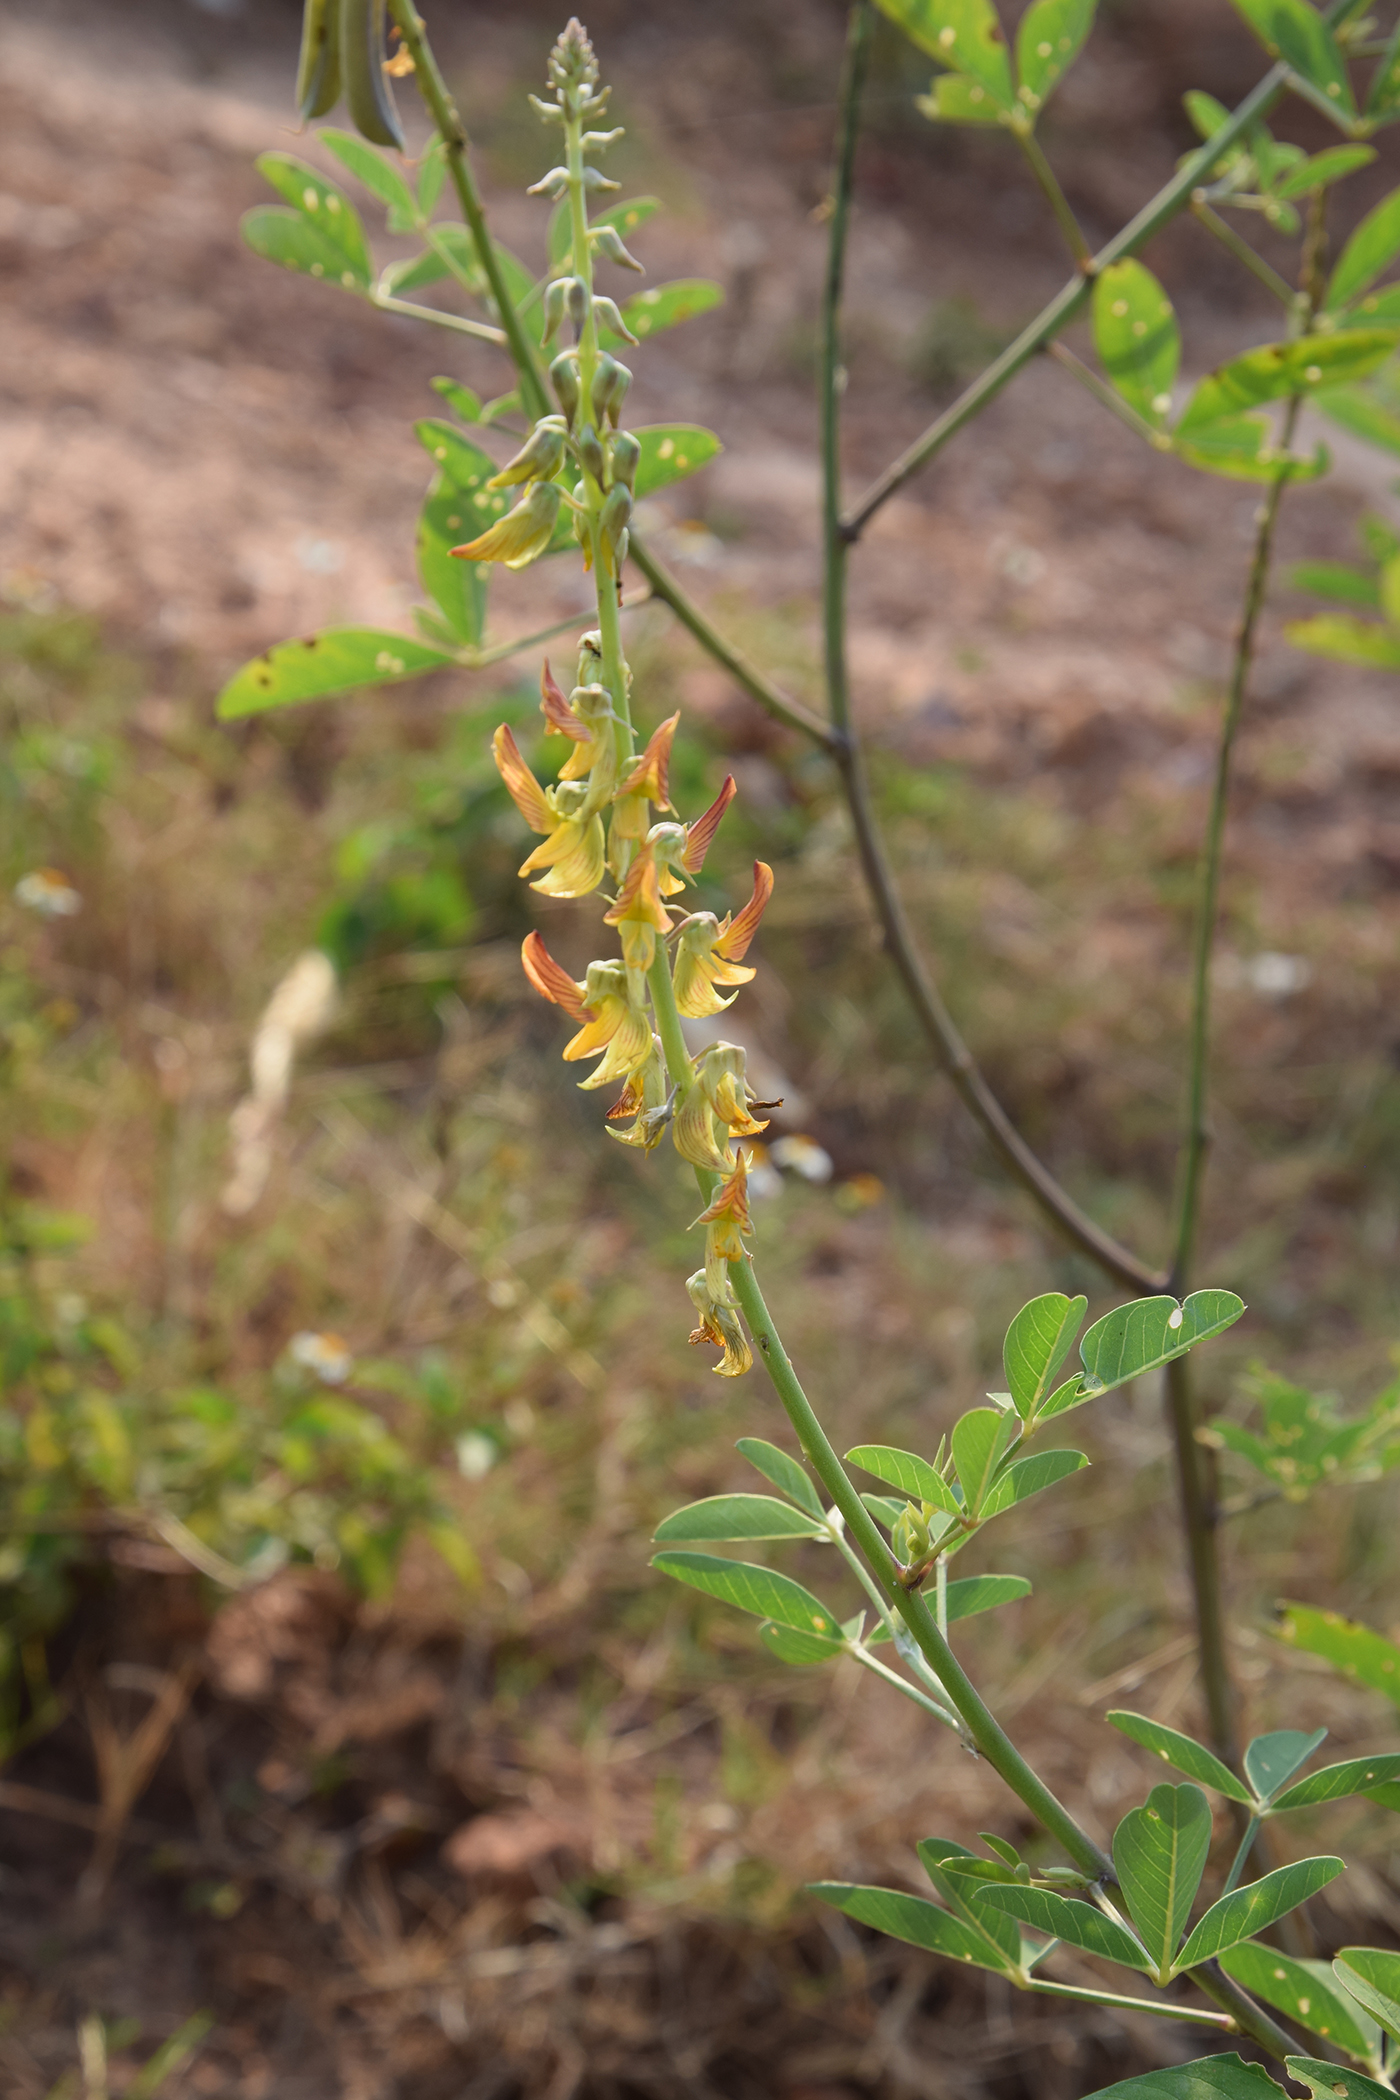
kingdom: Plantae
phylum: Tracheophyta
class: Magnoliopsida
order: Fabales
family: Fabaceae
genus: Crotalaria
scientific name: Crotalaria pallida
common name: Smooth rattlebox
